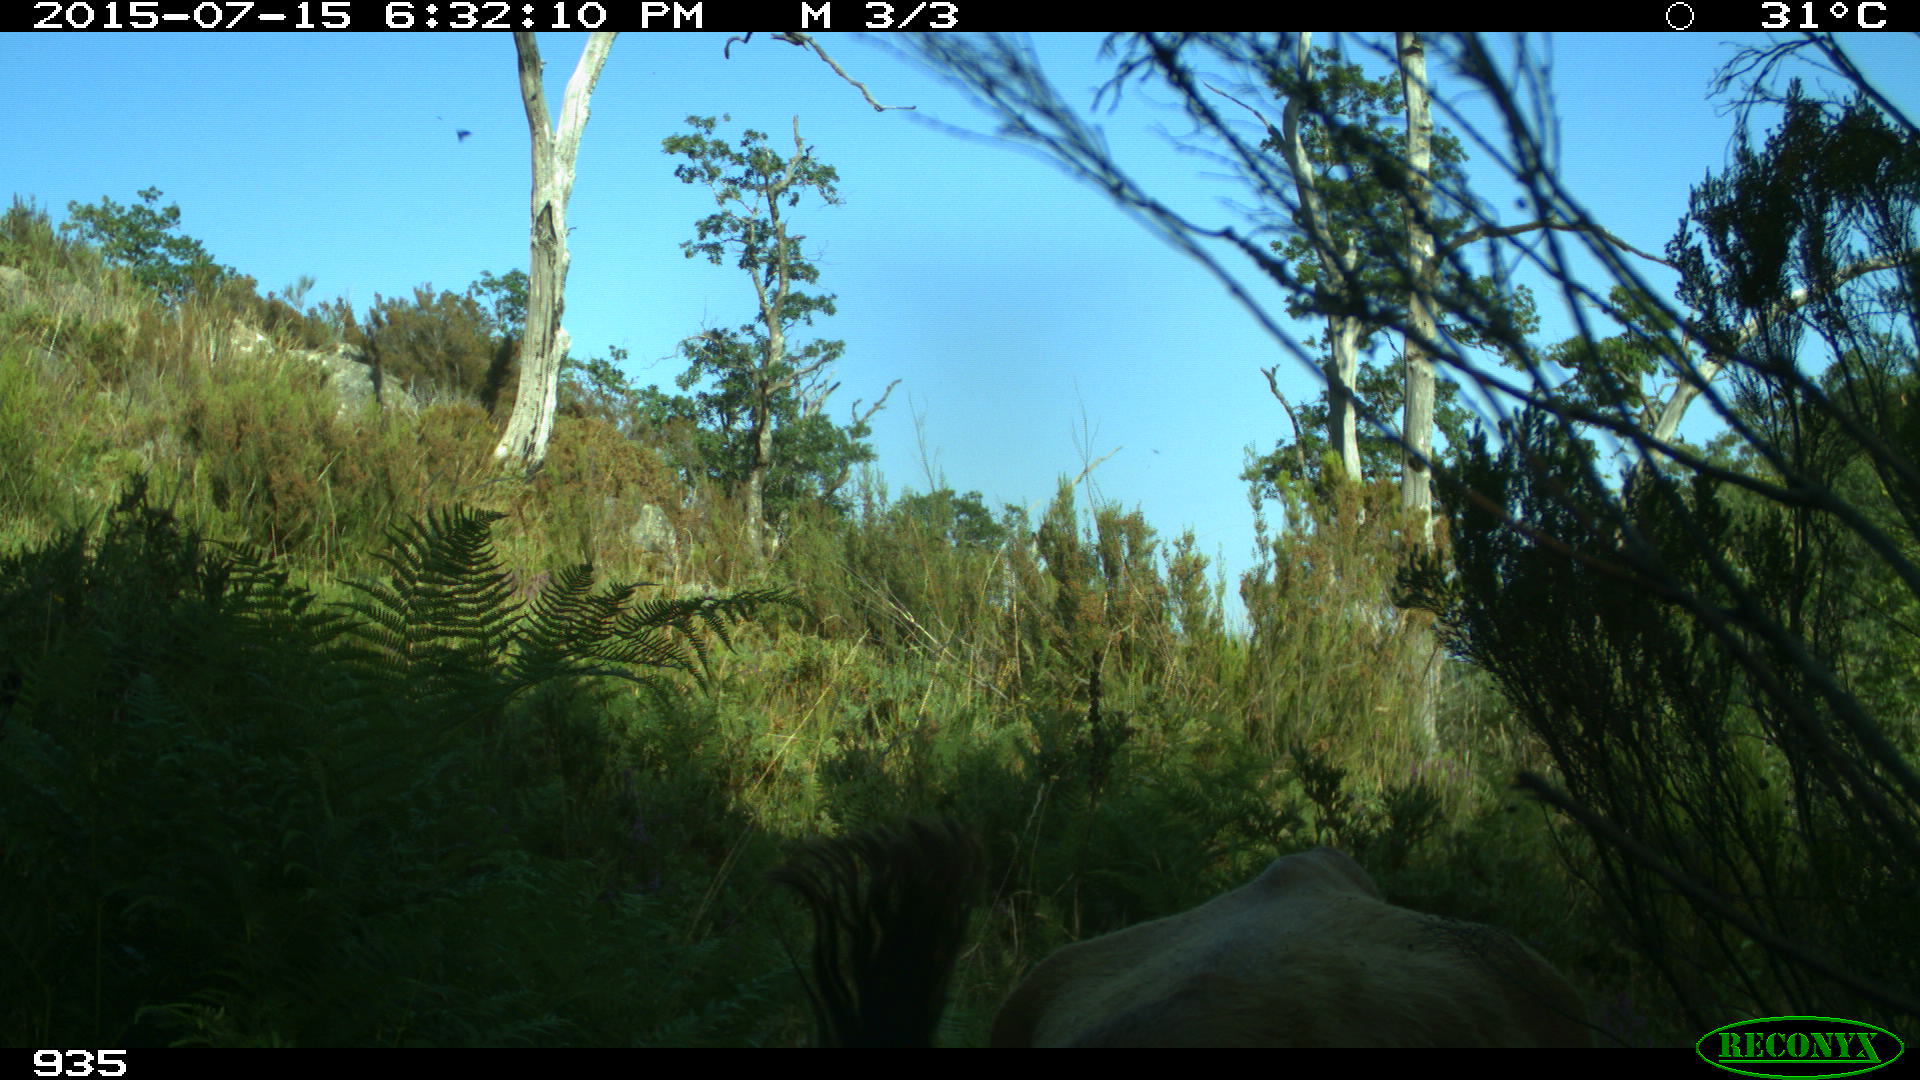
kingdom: Animalia
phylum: Chordata
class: Mammalia
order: Artiodactyla
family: Bovidae
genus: Bos
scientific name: Bos taurus
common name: Domesticated cattle
